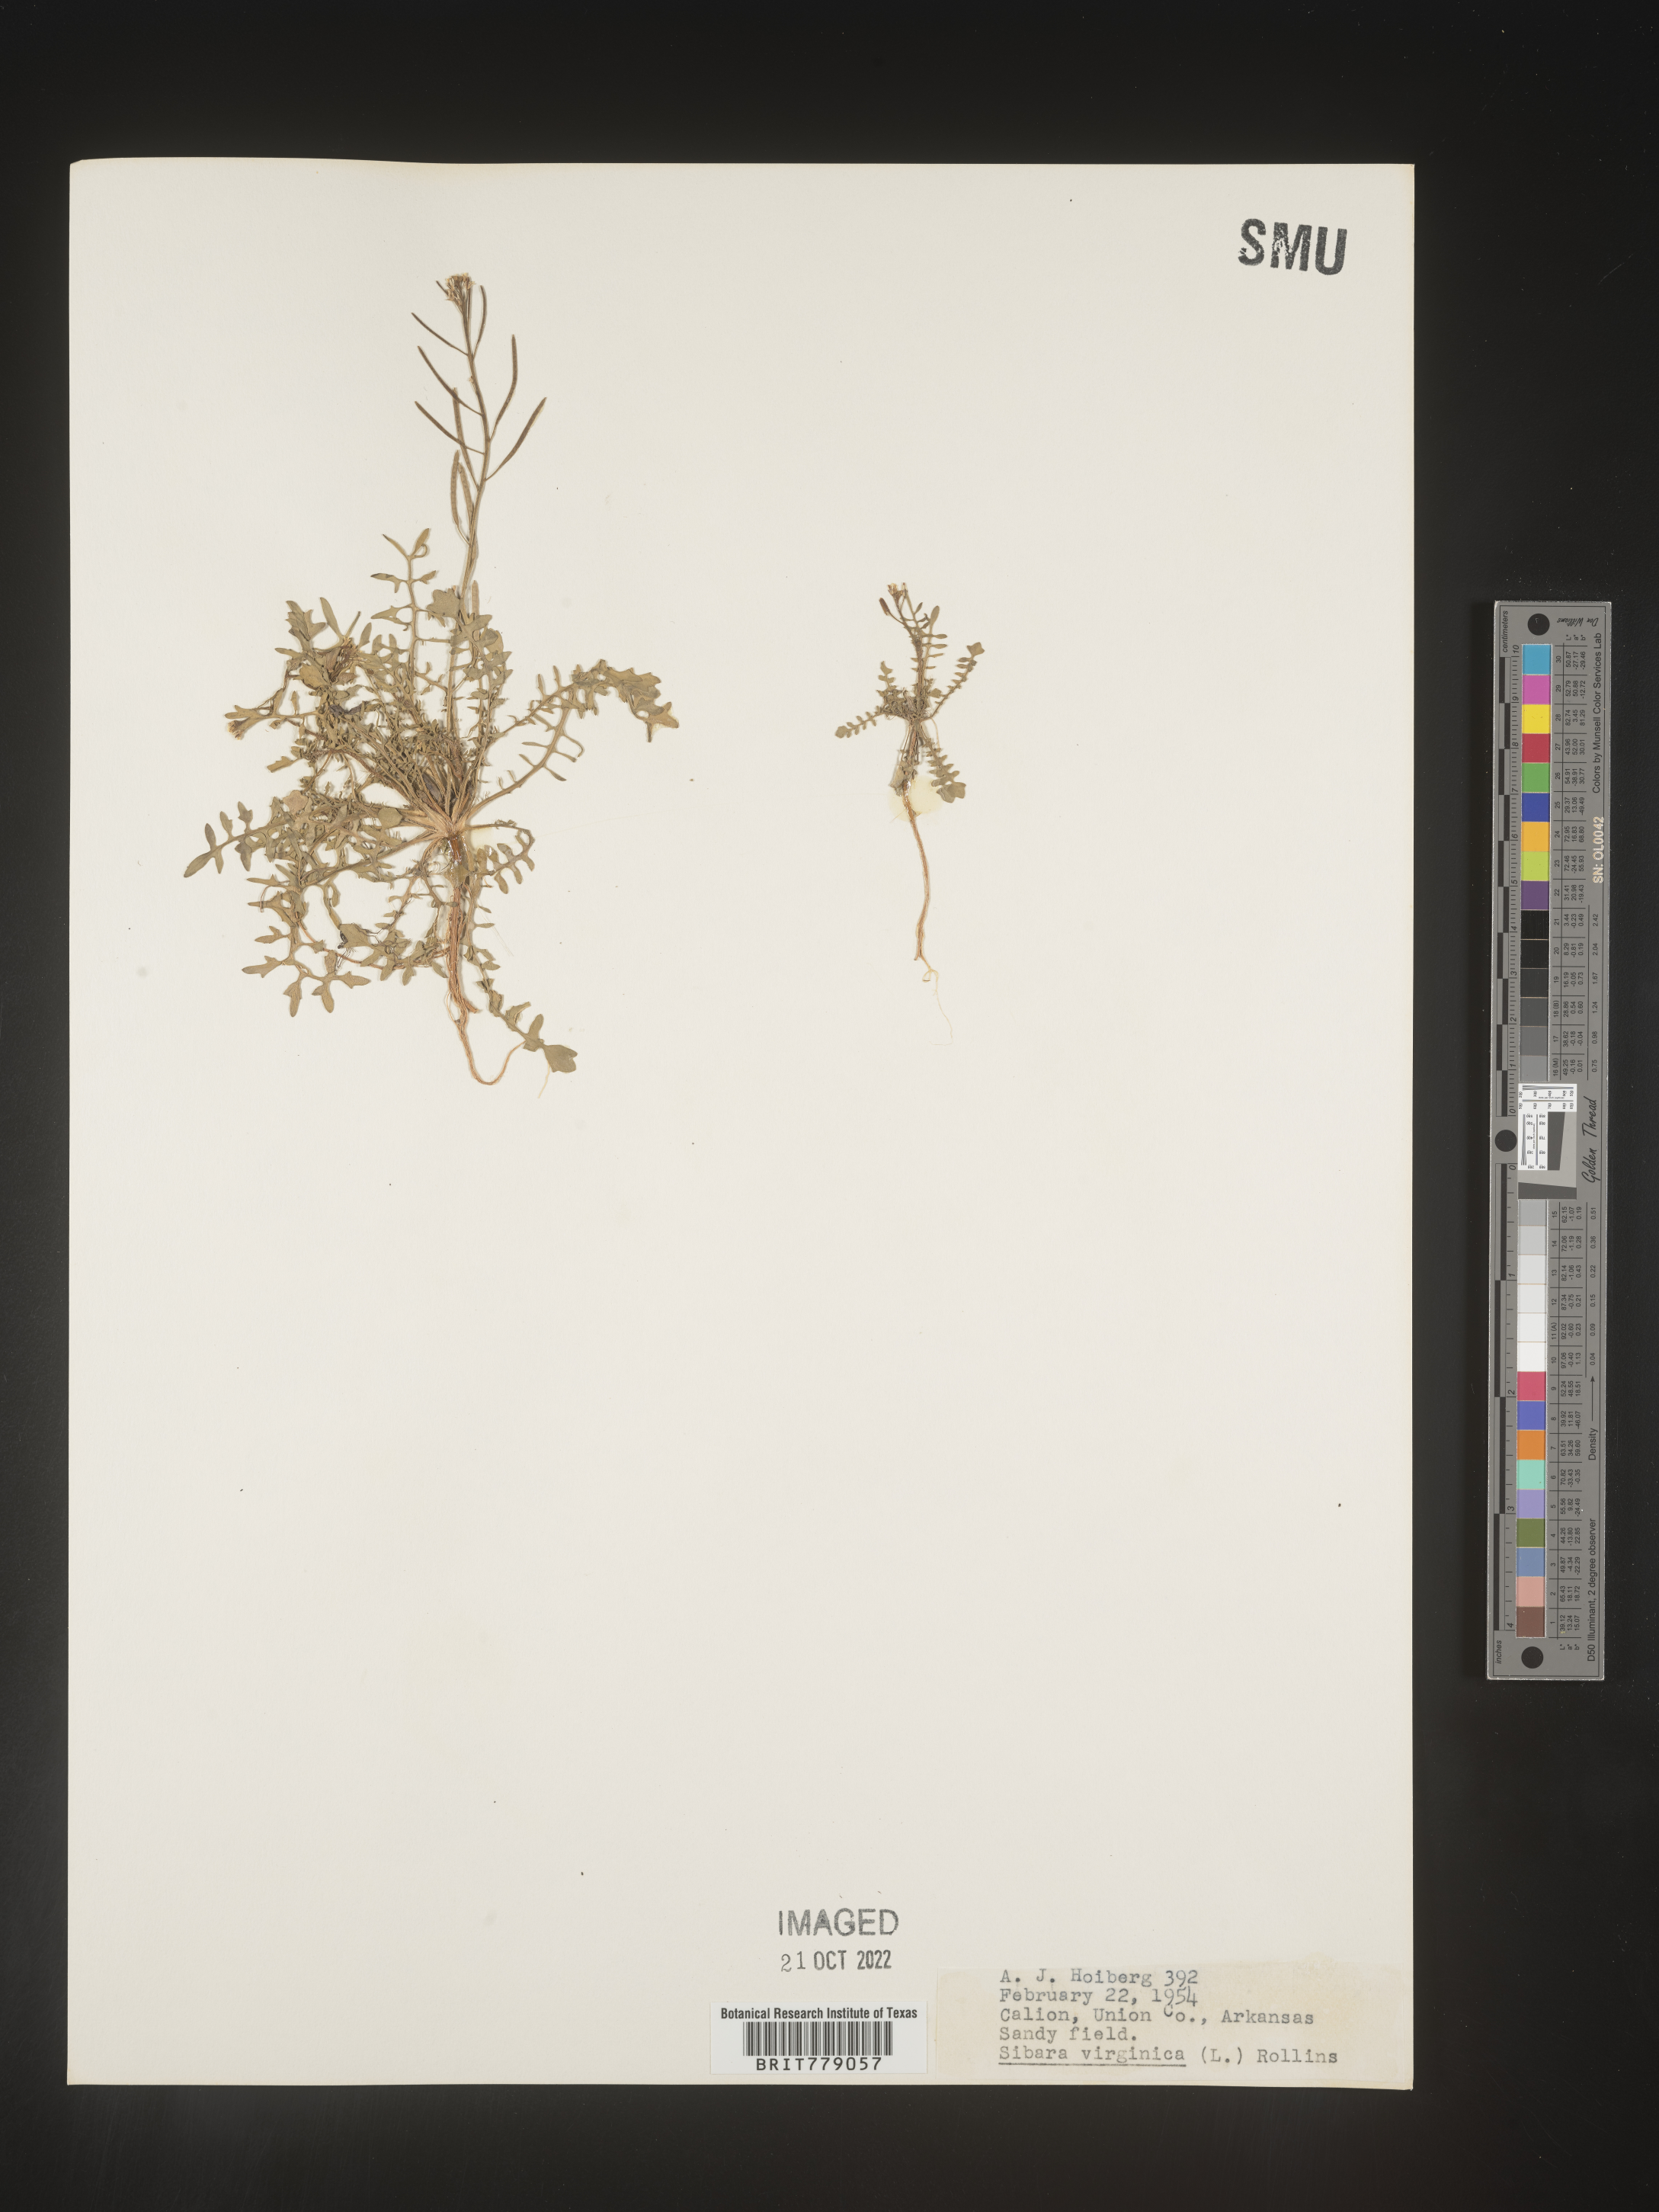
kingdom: Plantae
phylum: Tracheophyta
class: Magnoliopsida
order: Brassicales
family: Brassicaceae
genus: Sibara
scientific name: Sibara
